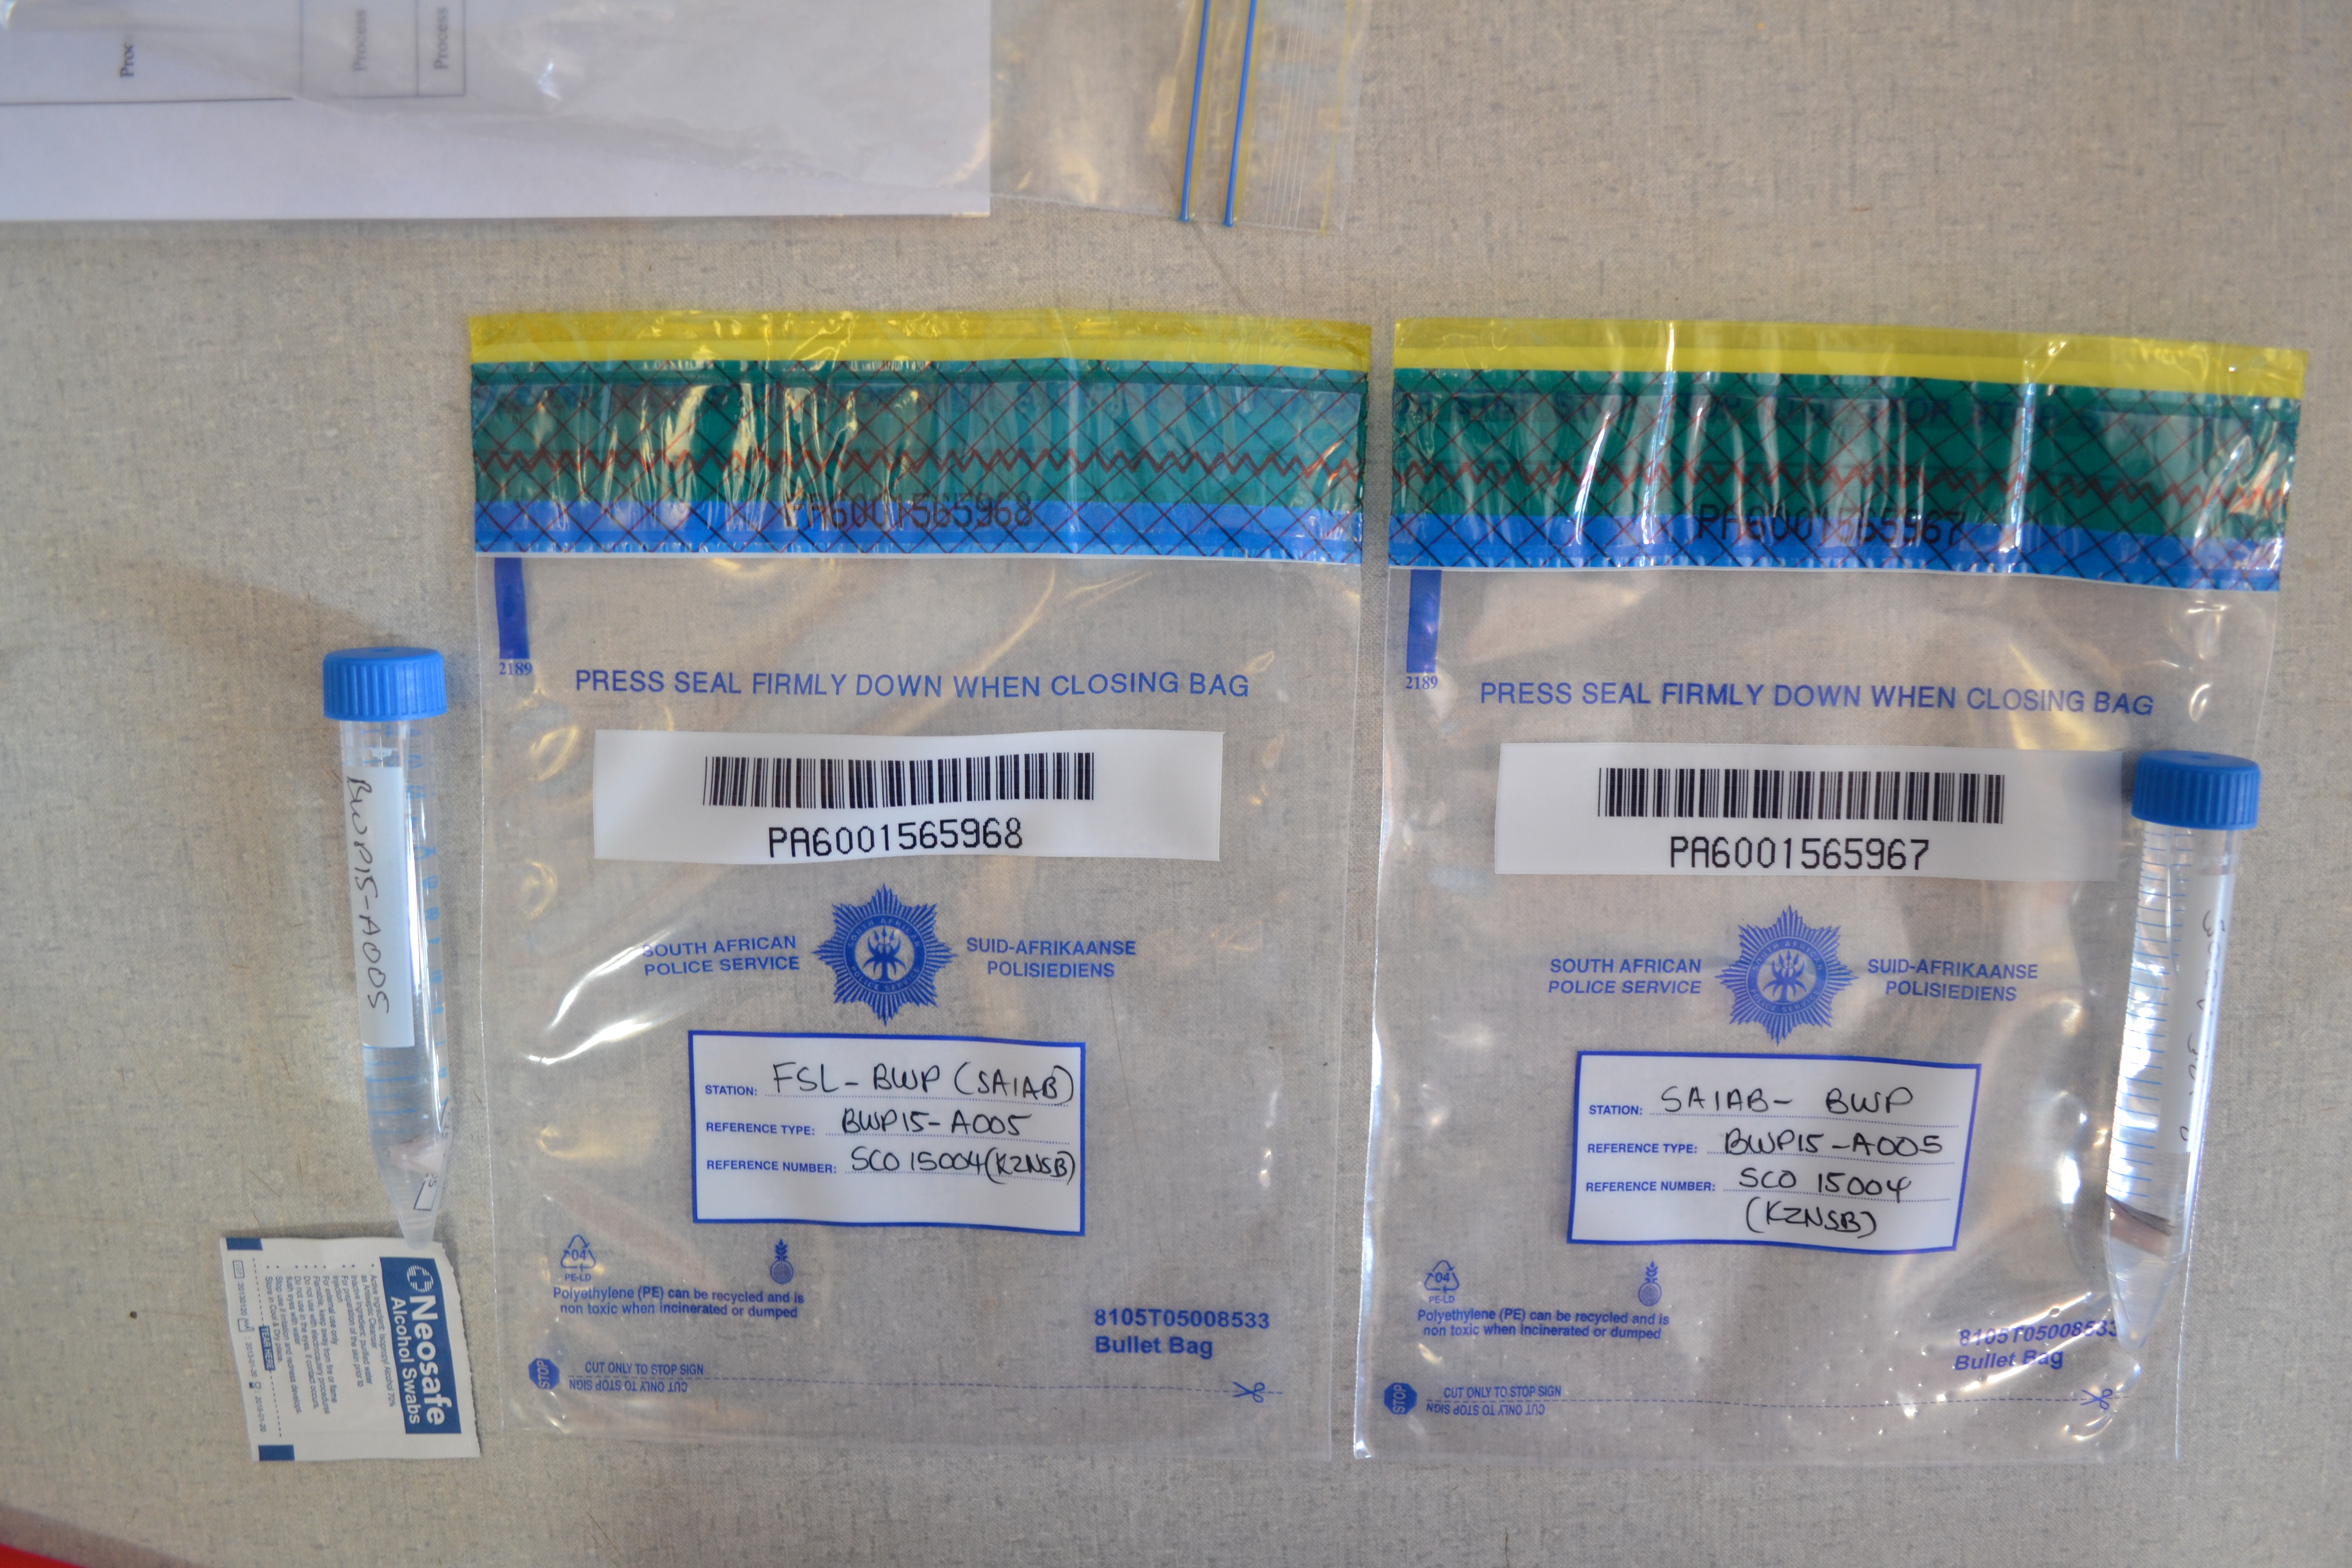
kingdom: Animalia
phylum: Chordata
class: Elasmobranchii
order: Carcharhiniformes
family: Carcharhinidae
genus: Carcharhinus
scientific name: Carcharhinus brevipinna
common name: Spinner shark
